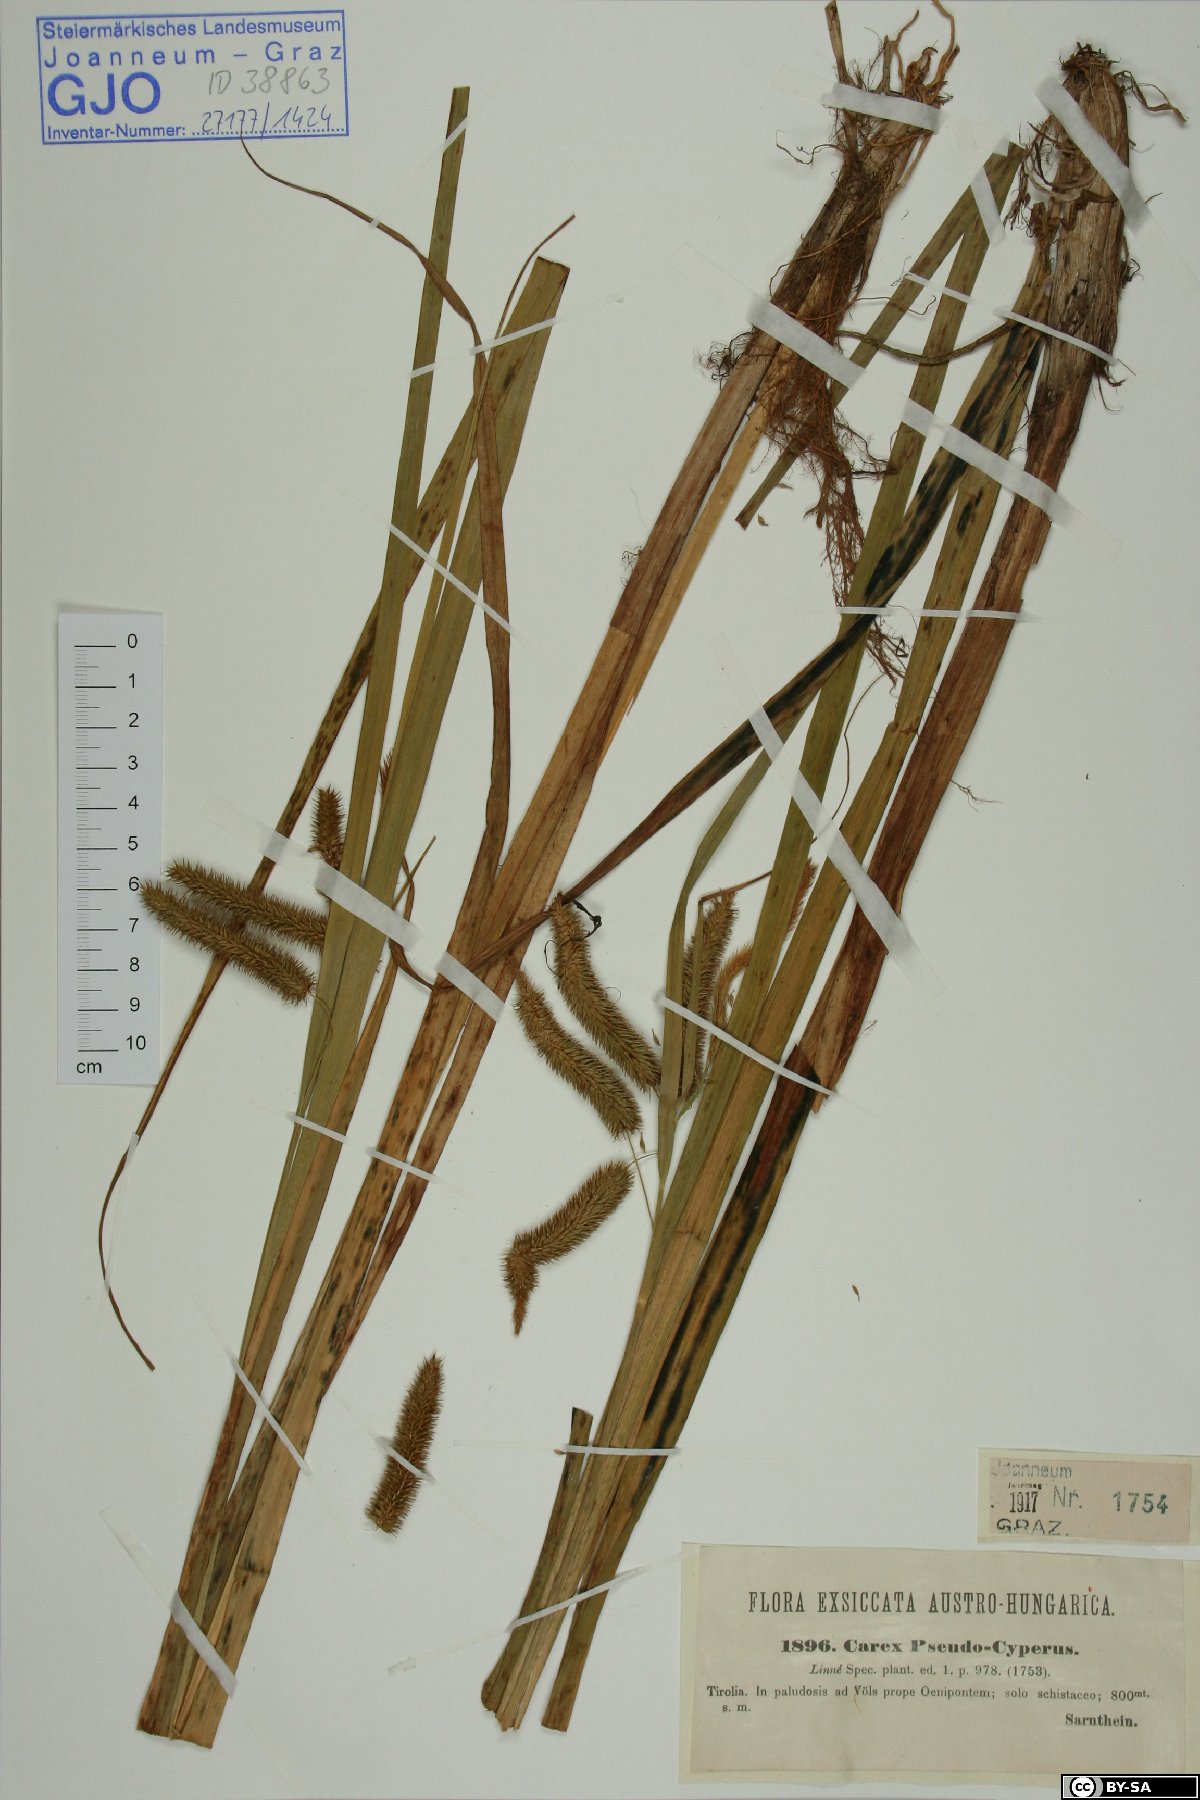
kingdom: Plantae
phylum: Tracheophyta
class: Liliopsida
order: Poales
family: Cyperaceae
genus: Carex
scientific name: Carex pseudocyperus
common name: Cyperus sedge
